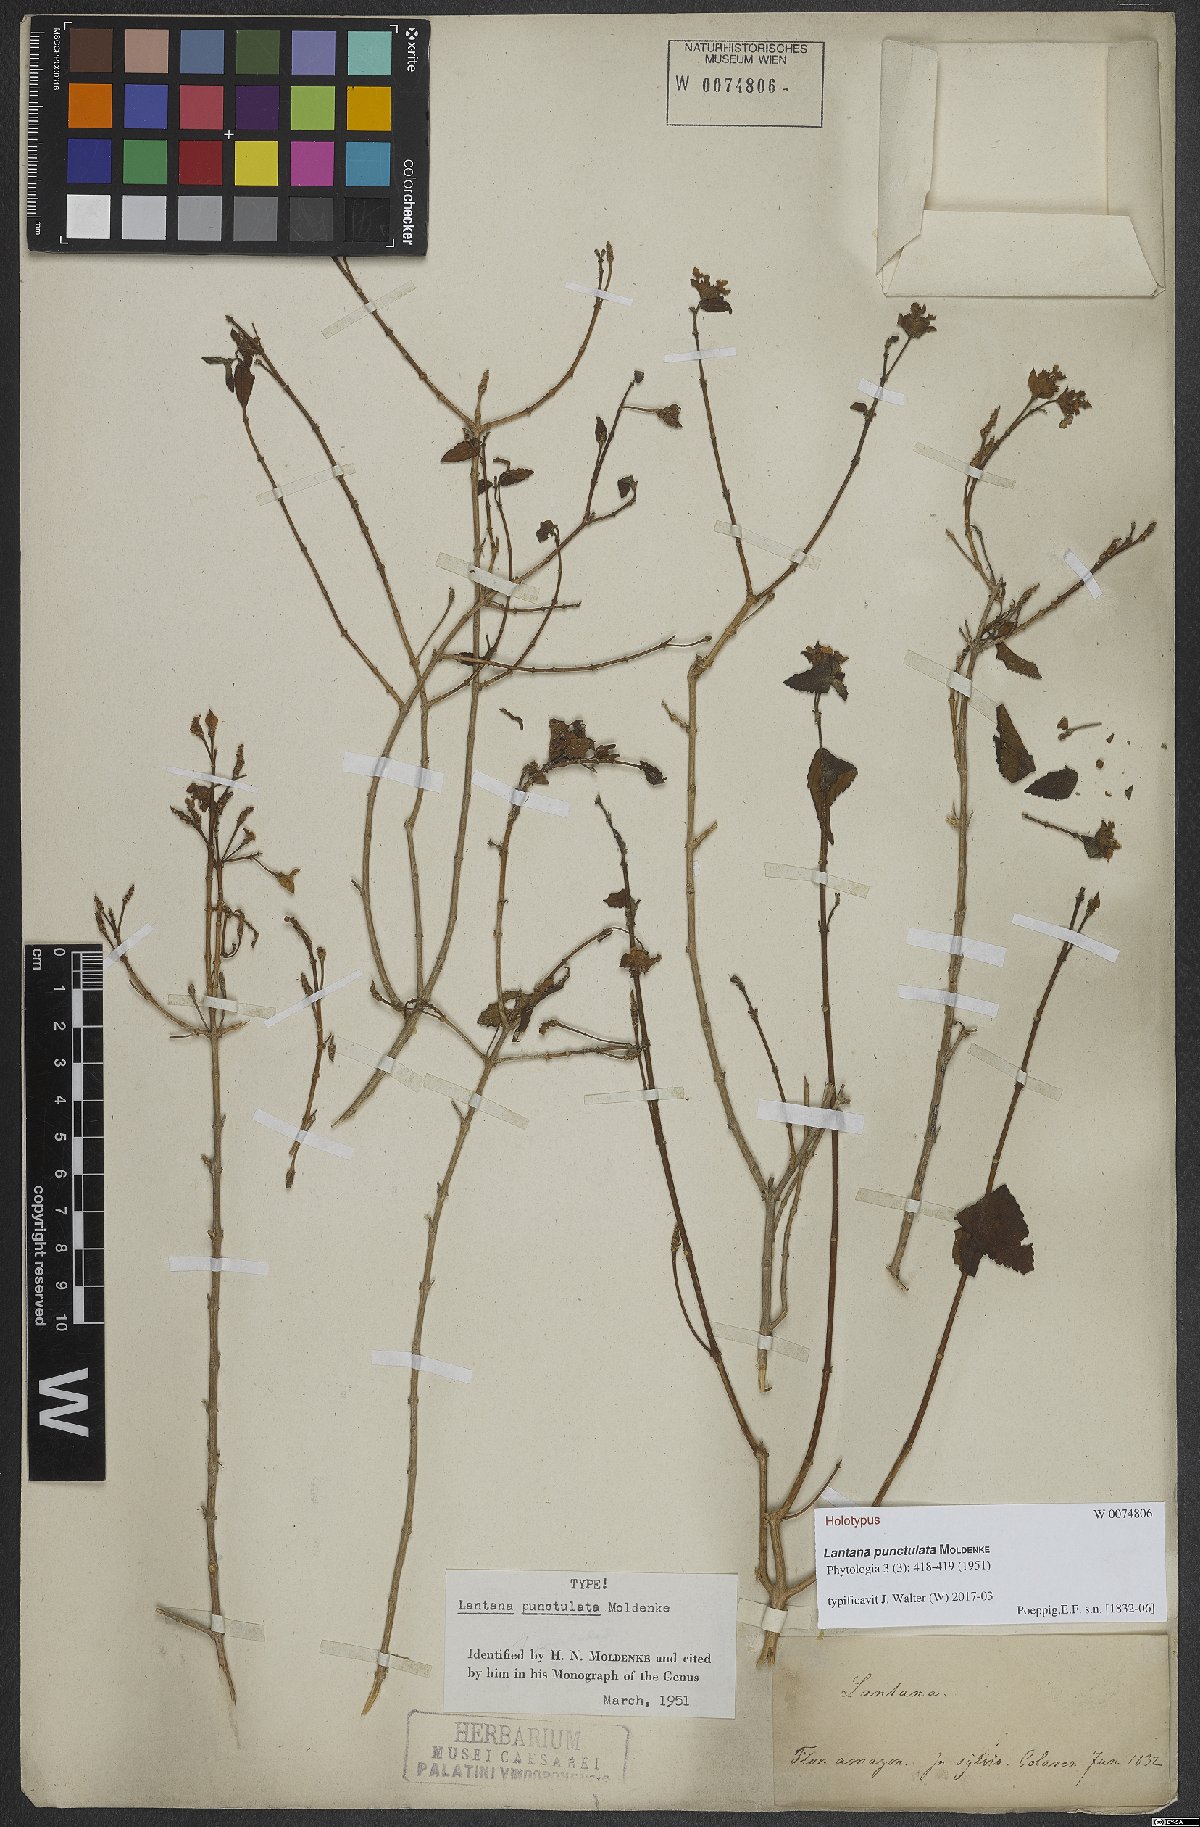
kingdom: Plantae
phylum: Tracheophyta
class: Magnoliopsida
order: Lamiales
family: Verbenaceae
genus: Lantana
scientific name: Lantana punctulata
